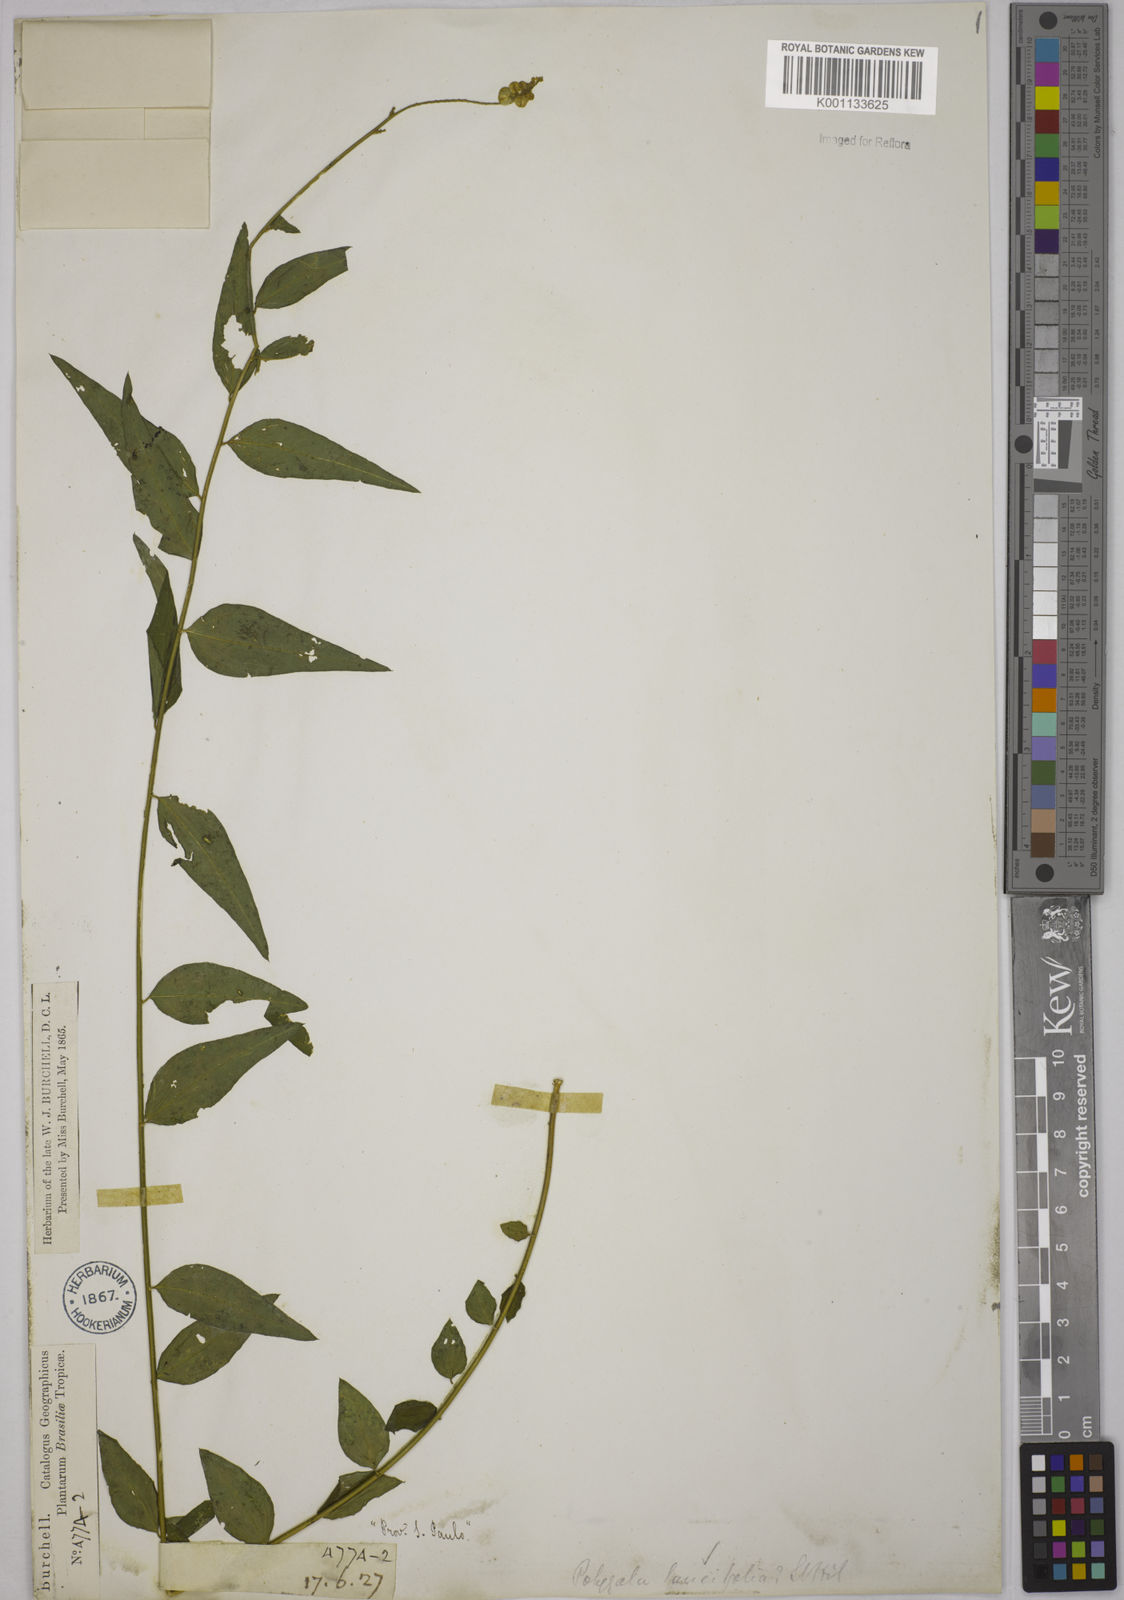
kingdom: Plantae
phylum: Tracheophyta
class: Magnoliopsida
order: Fabales
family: Polygalaceae
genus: Polygala
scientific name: Polygala lancifolia
